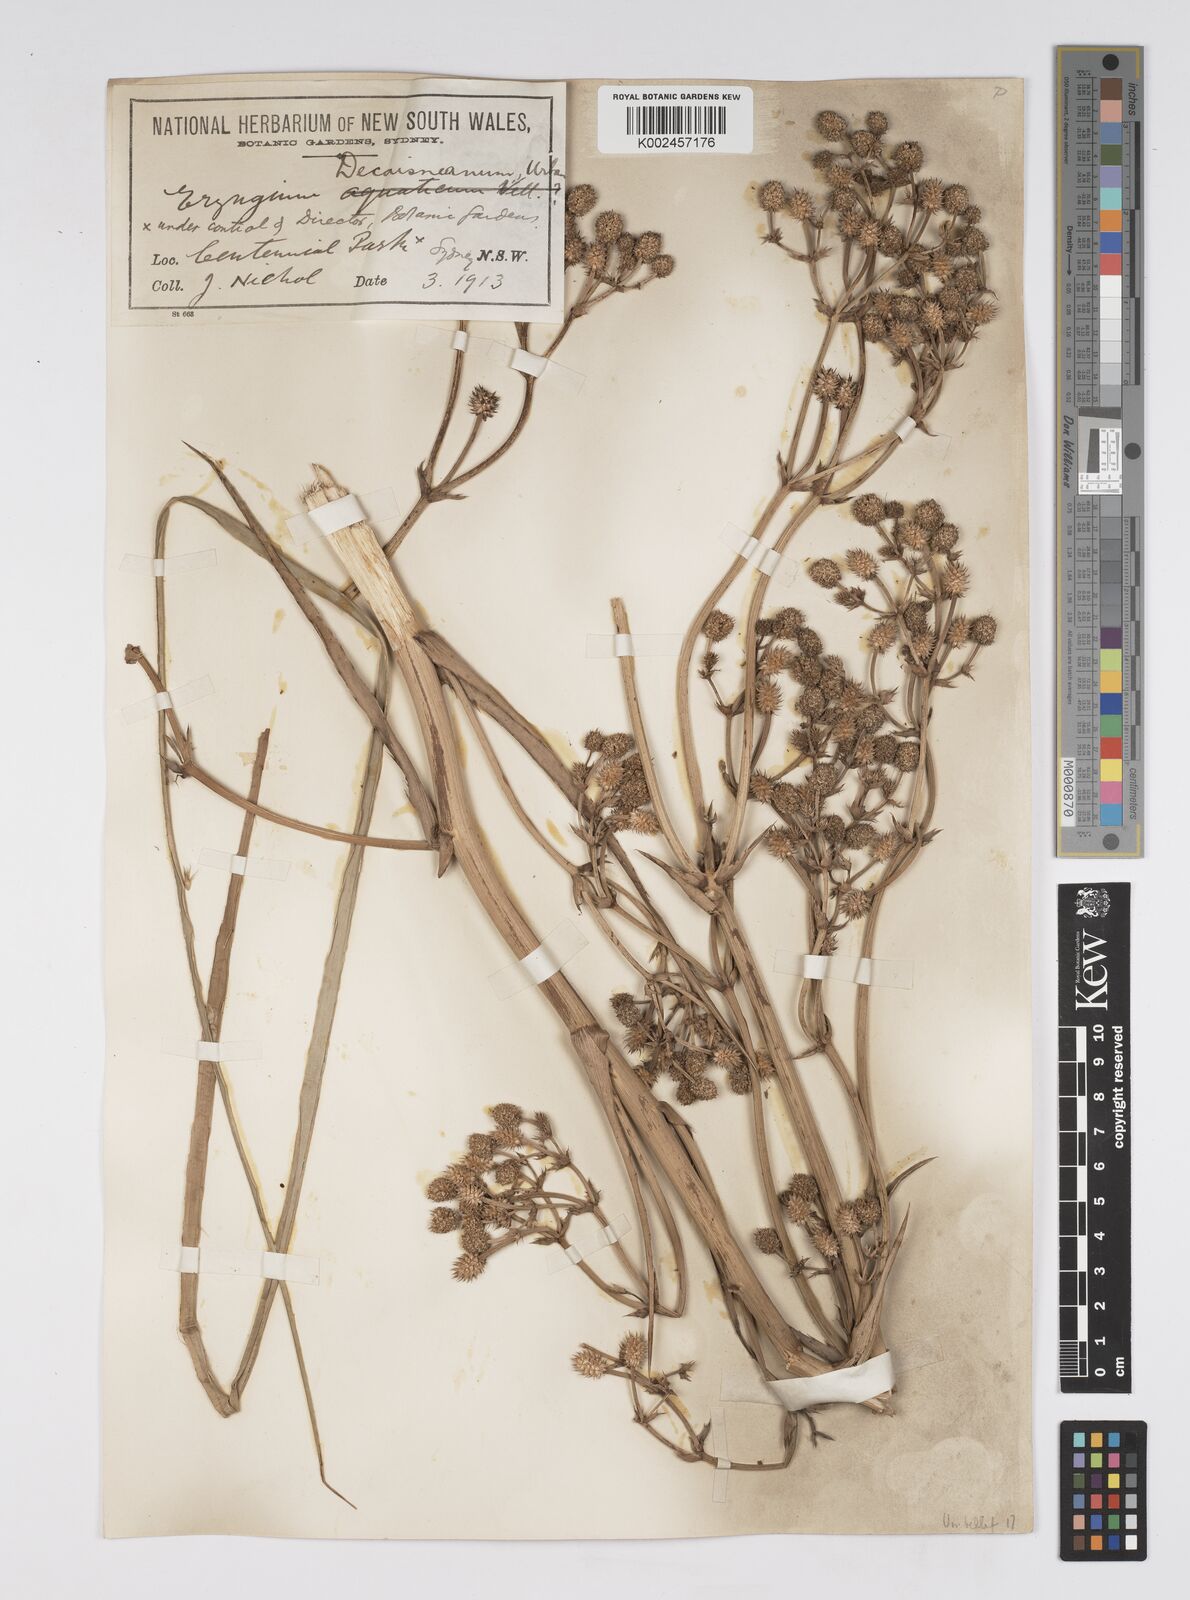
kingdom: Plantae
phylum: Tracheophyta
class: Magnoliopsida
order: Apiales
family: Apiaceae
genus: Eryngium
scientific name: Eryngium pandanifolium
